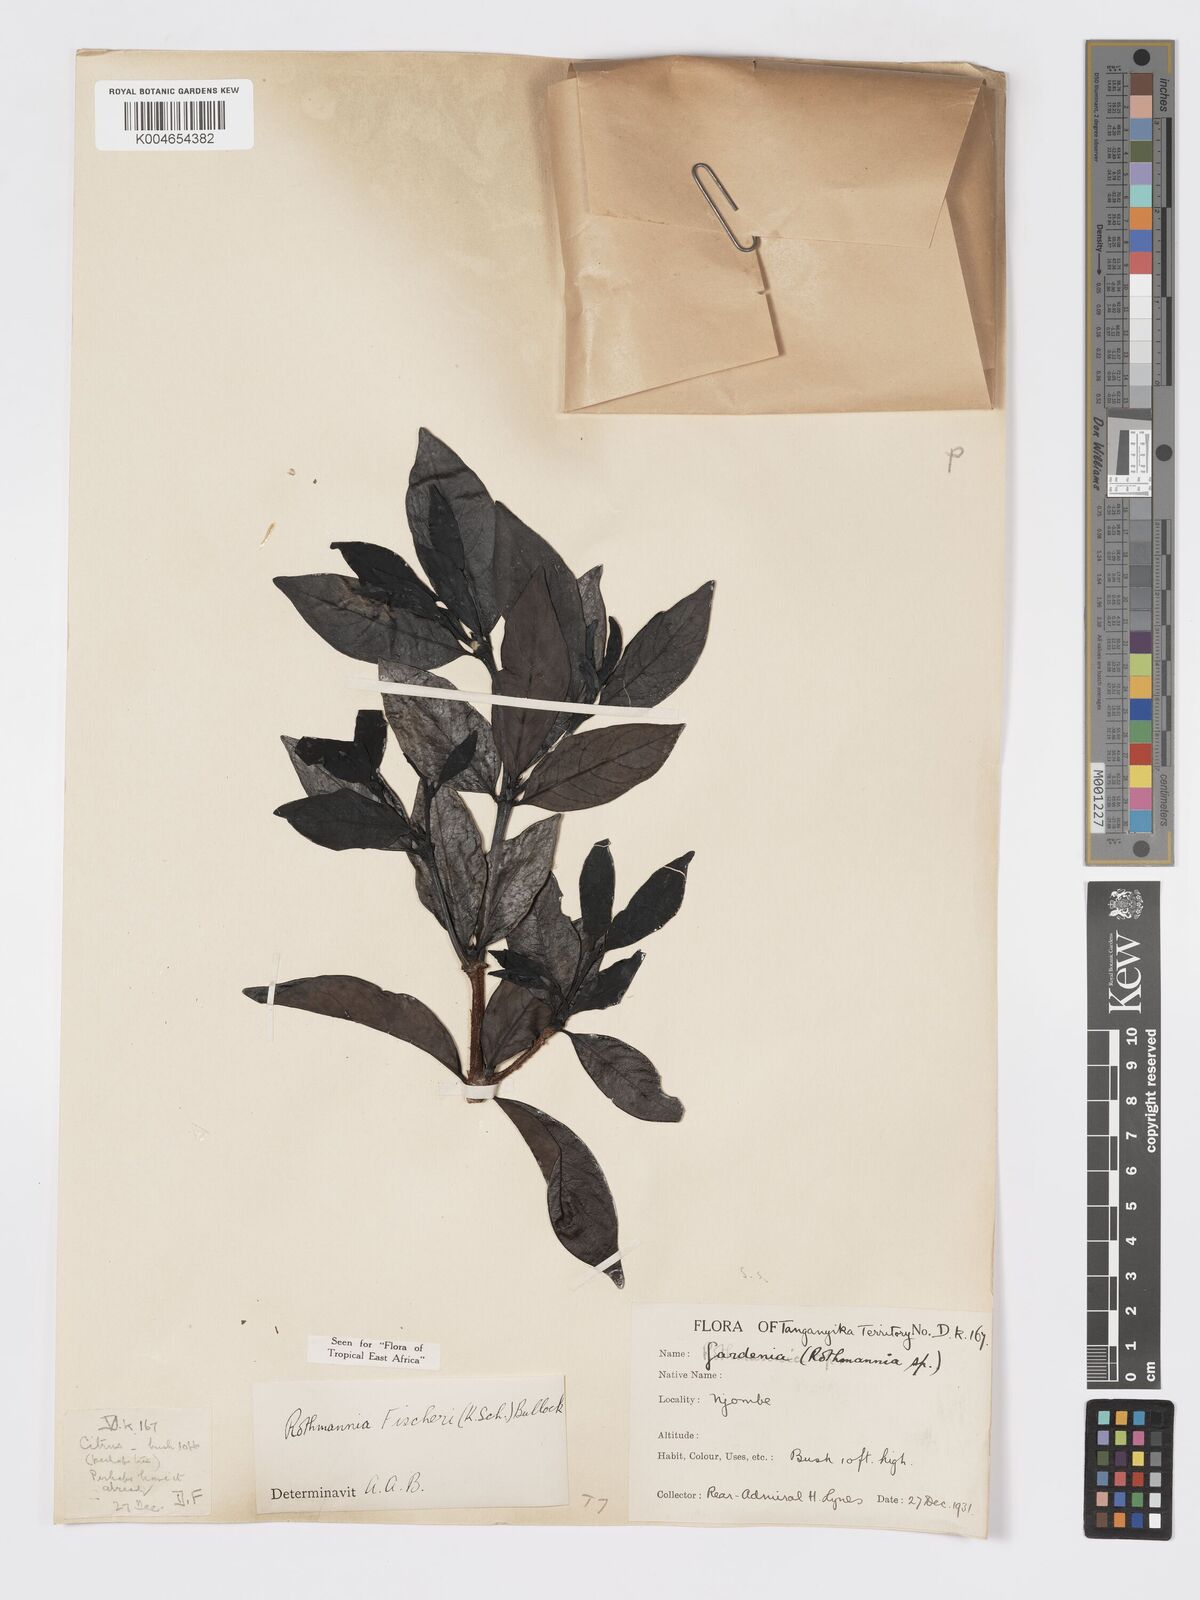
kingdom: Plantae
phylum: Tracheophyta
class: Magnoliopsida
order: Gentianales
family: Rubiaceae
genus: Rothmannia
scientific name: Rothmannia fischeri
